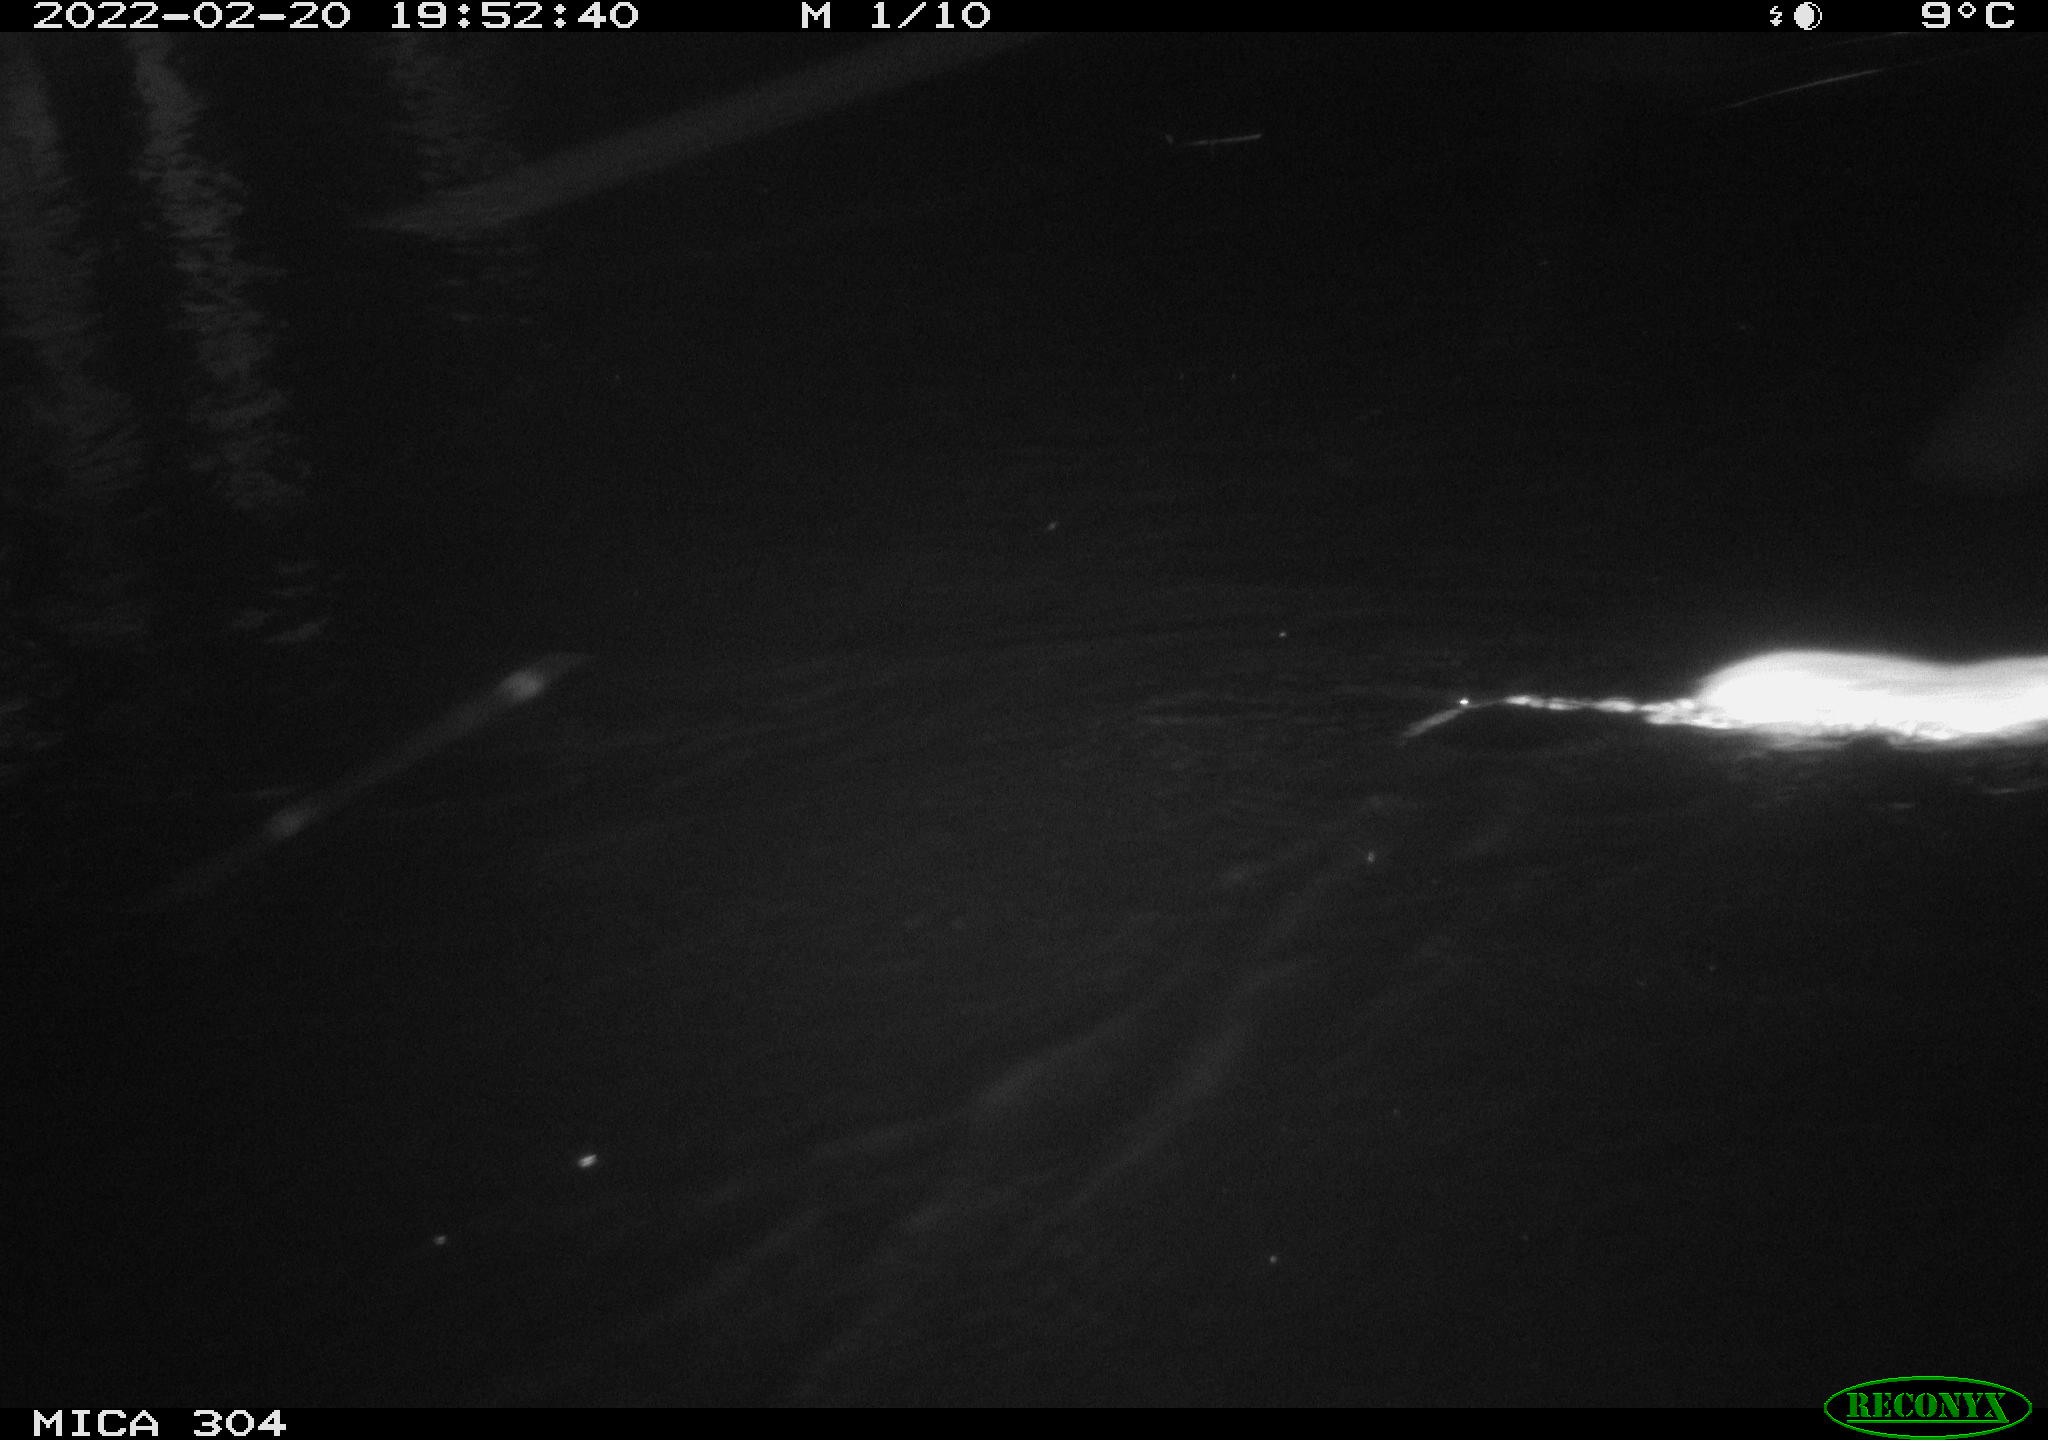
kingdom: Animalia
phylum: Chordata
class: Mammalia
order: Rodentia
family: Muridae
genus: Rattus
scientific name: Rattus norvegicus
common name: Brown rat
